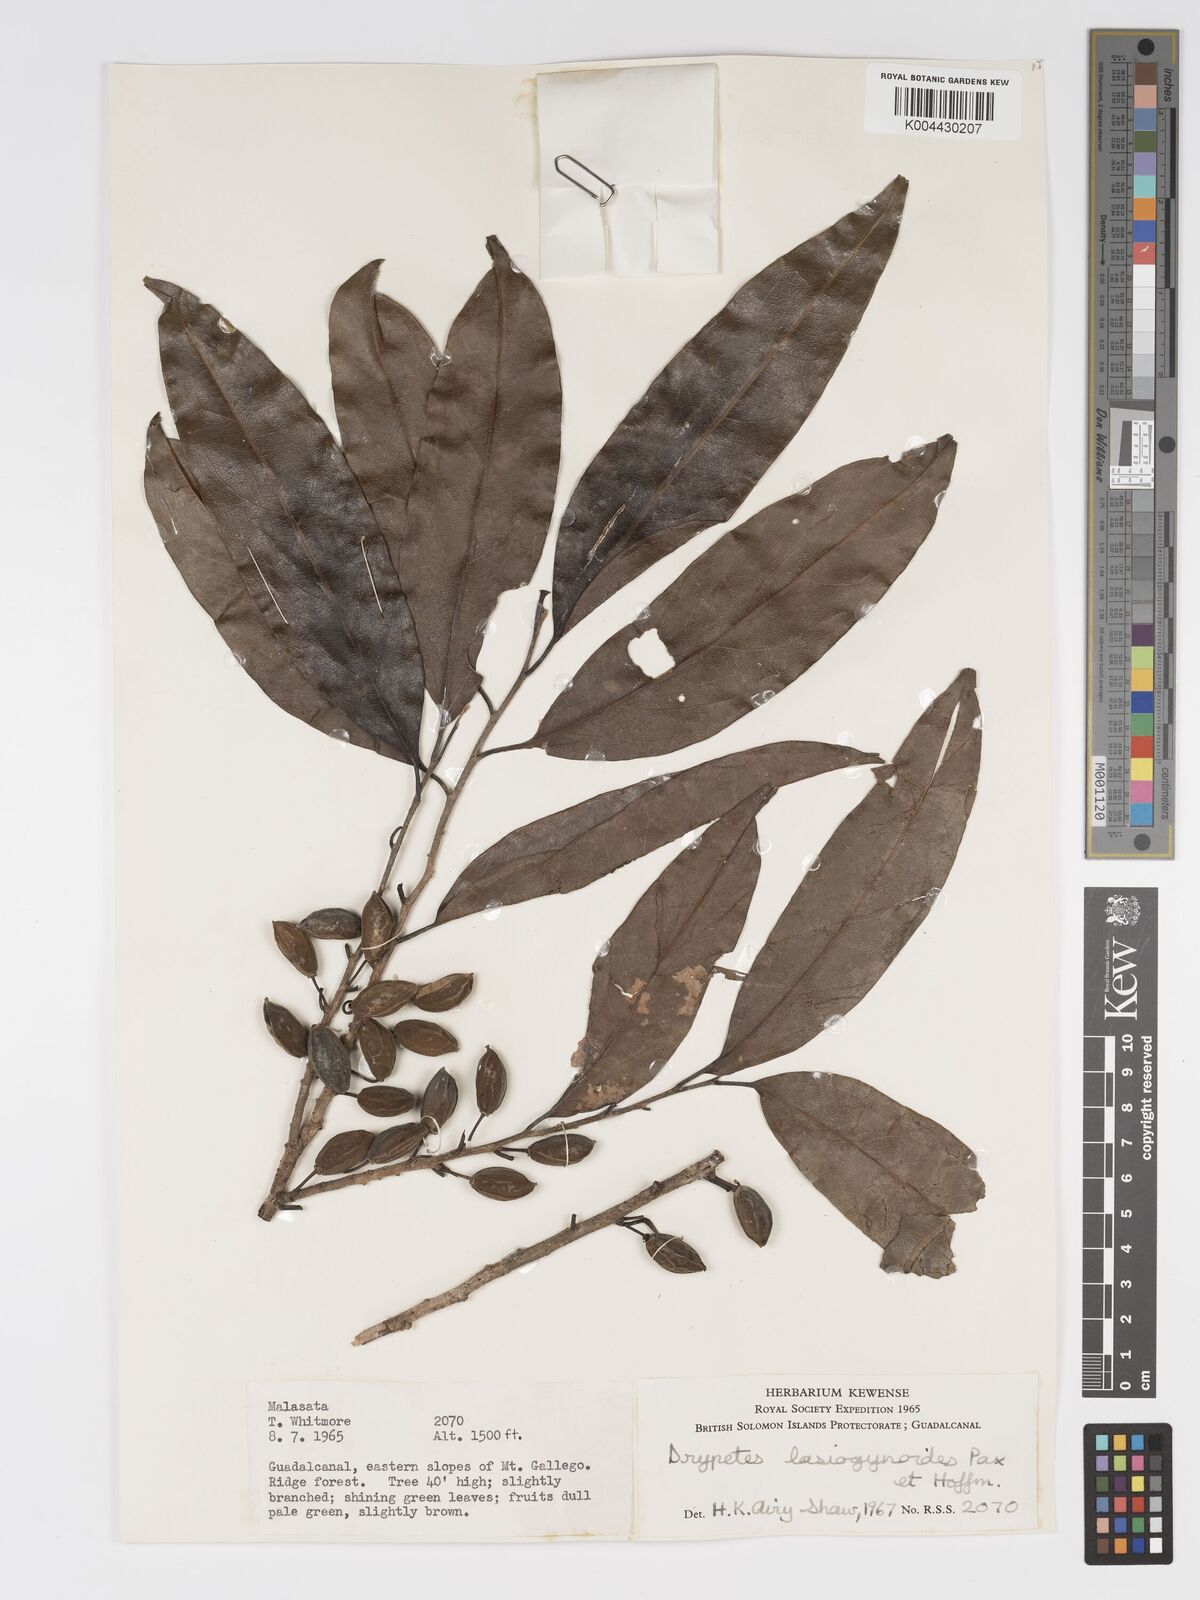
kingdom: Plantae
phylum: Tracheophyta
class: Magnoliopsida
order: Malpighiales
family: Putranjivaceae
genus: Drypetes
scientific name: Drypetes lasiogynoides
